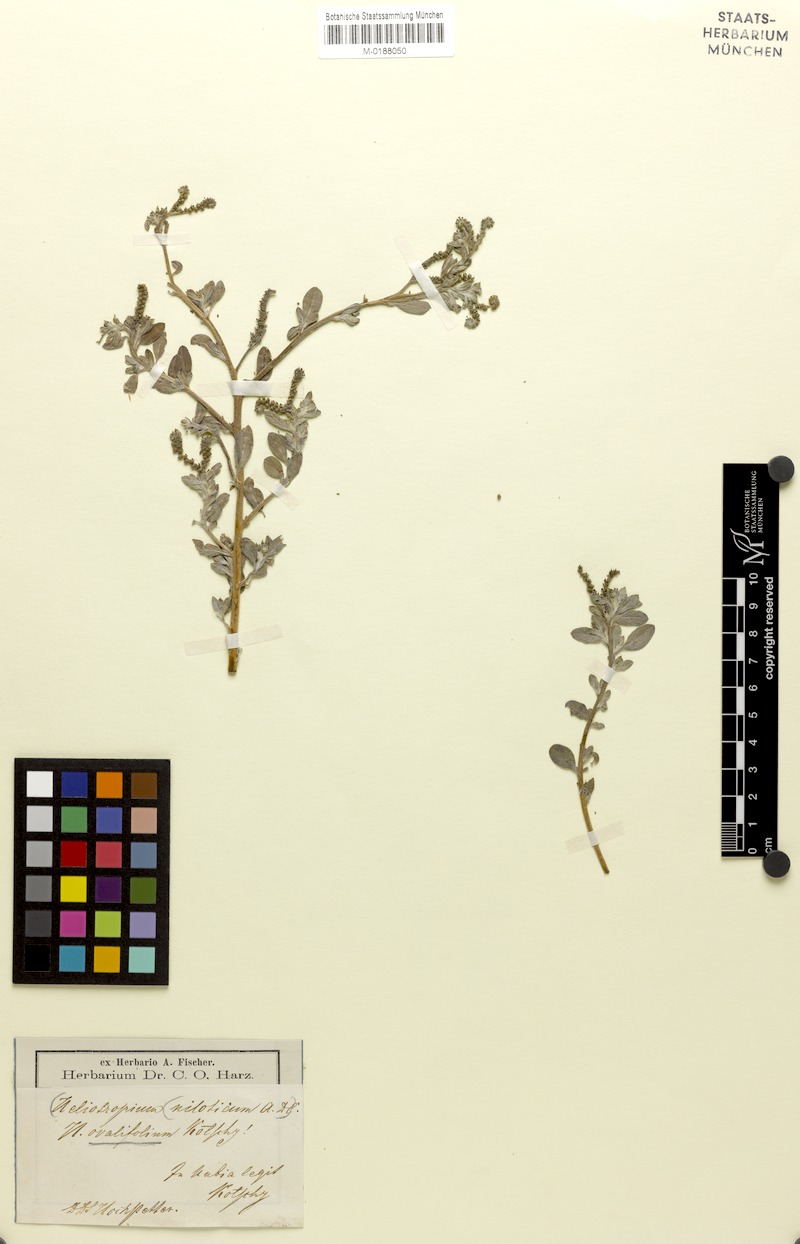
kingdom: Plantae
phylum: Tracheophyta
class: Magnoliopsida
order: Boraginales
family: Heliotropiaceae
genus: Euploca
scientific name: Euploca ovalifolia
